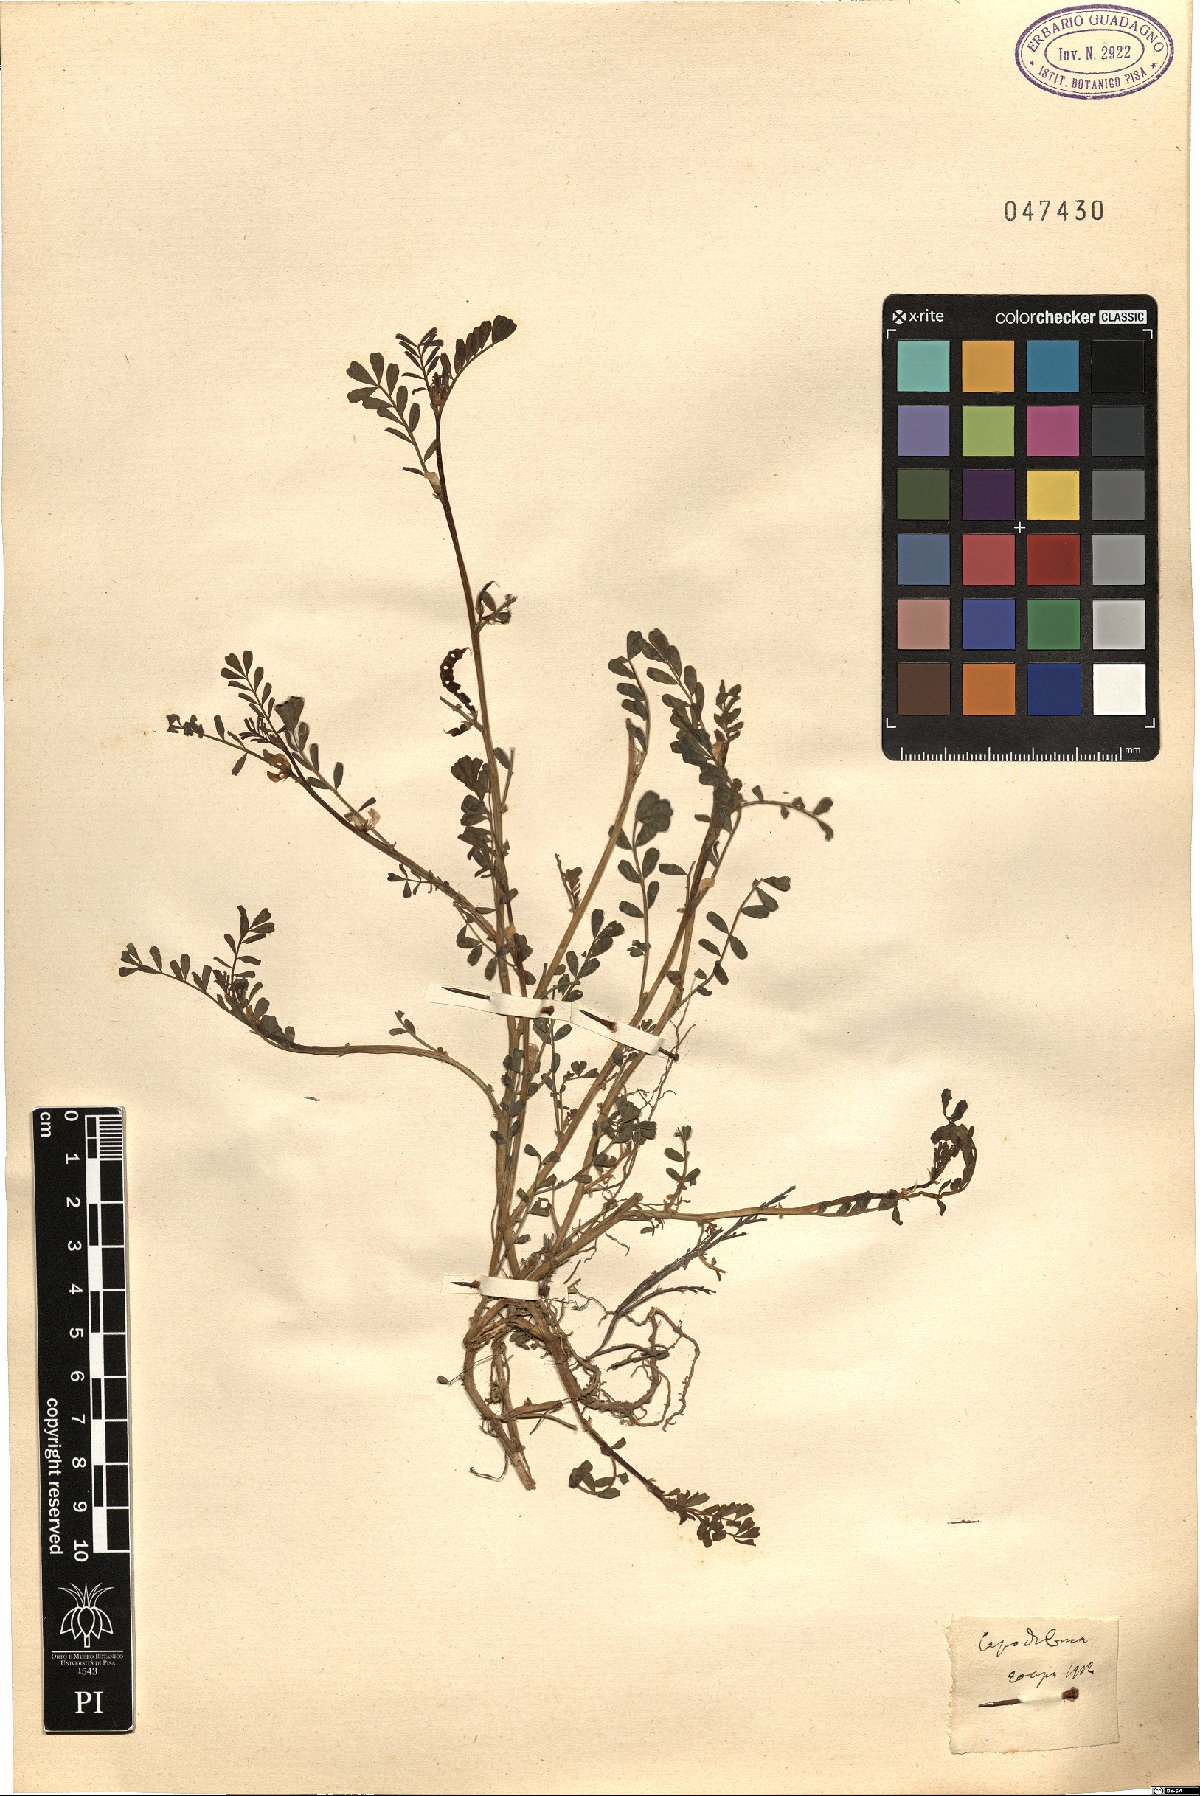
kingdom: Plantae
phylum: Tracheophyta
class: Magnoliopsida
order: Fabales
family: Fabaceae
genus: Hippocrepis
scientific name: Hippocrepis
